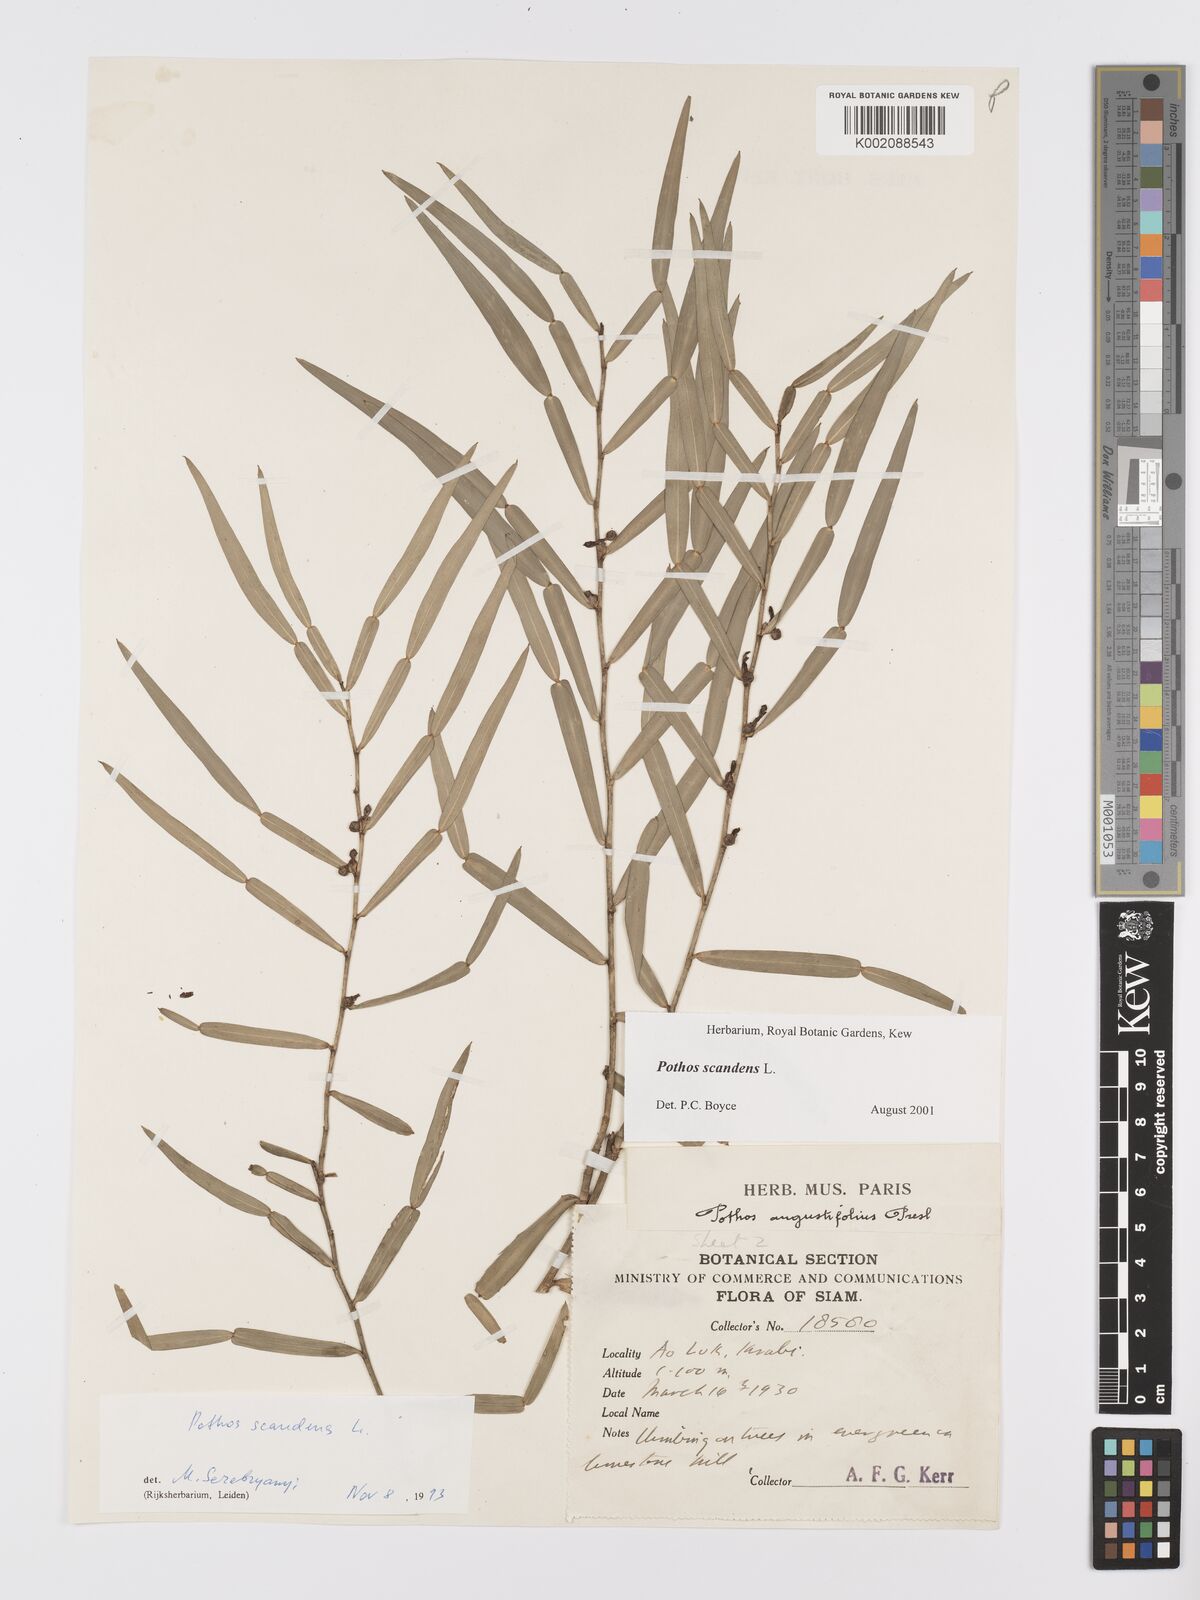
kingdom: Plantae
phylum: Tracheophyta
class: Liliopsida
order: Alismatales
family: Araceae
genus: Pothos
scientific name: Pothos scandens
